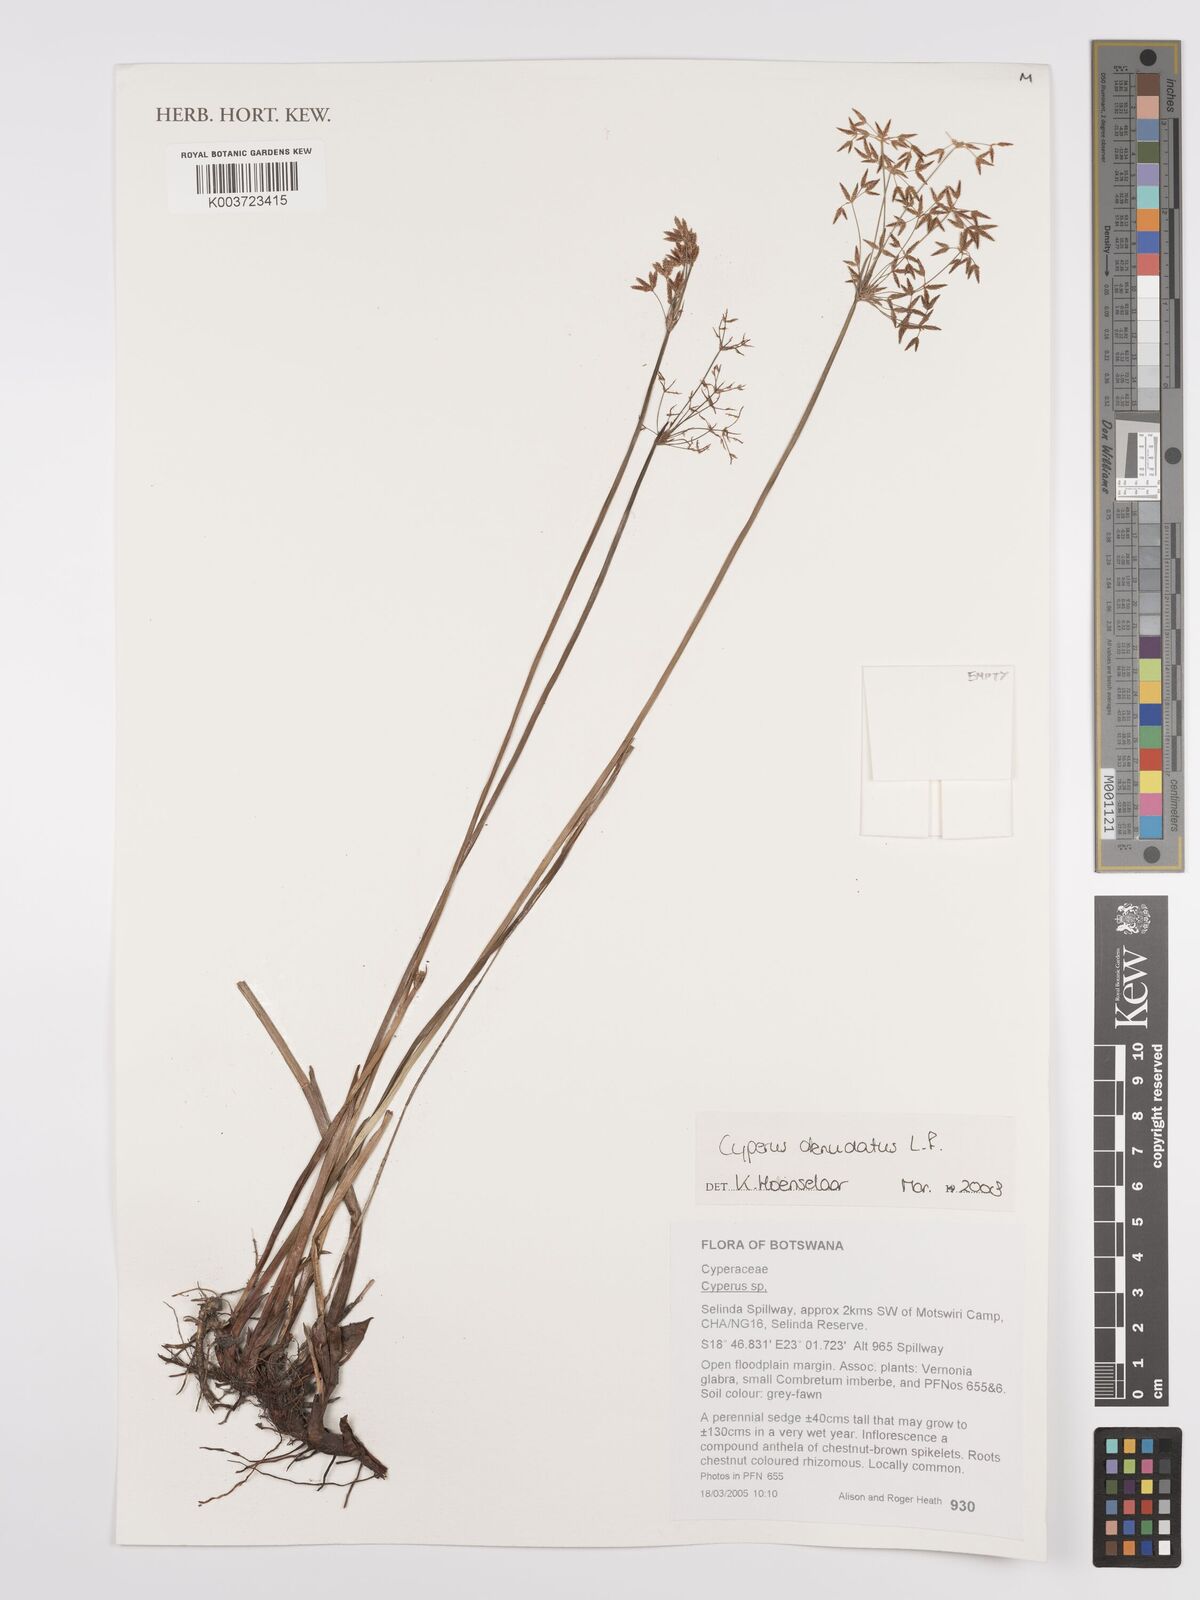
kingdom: Plantae
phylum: Tracheophyta
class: Liliopsida
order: Poales
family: Cyperaceae
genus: Cyperus
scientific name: Cyperus denudatus
